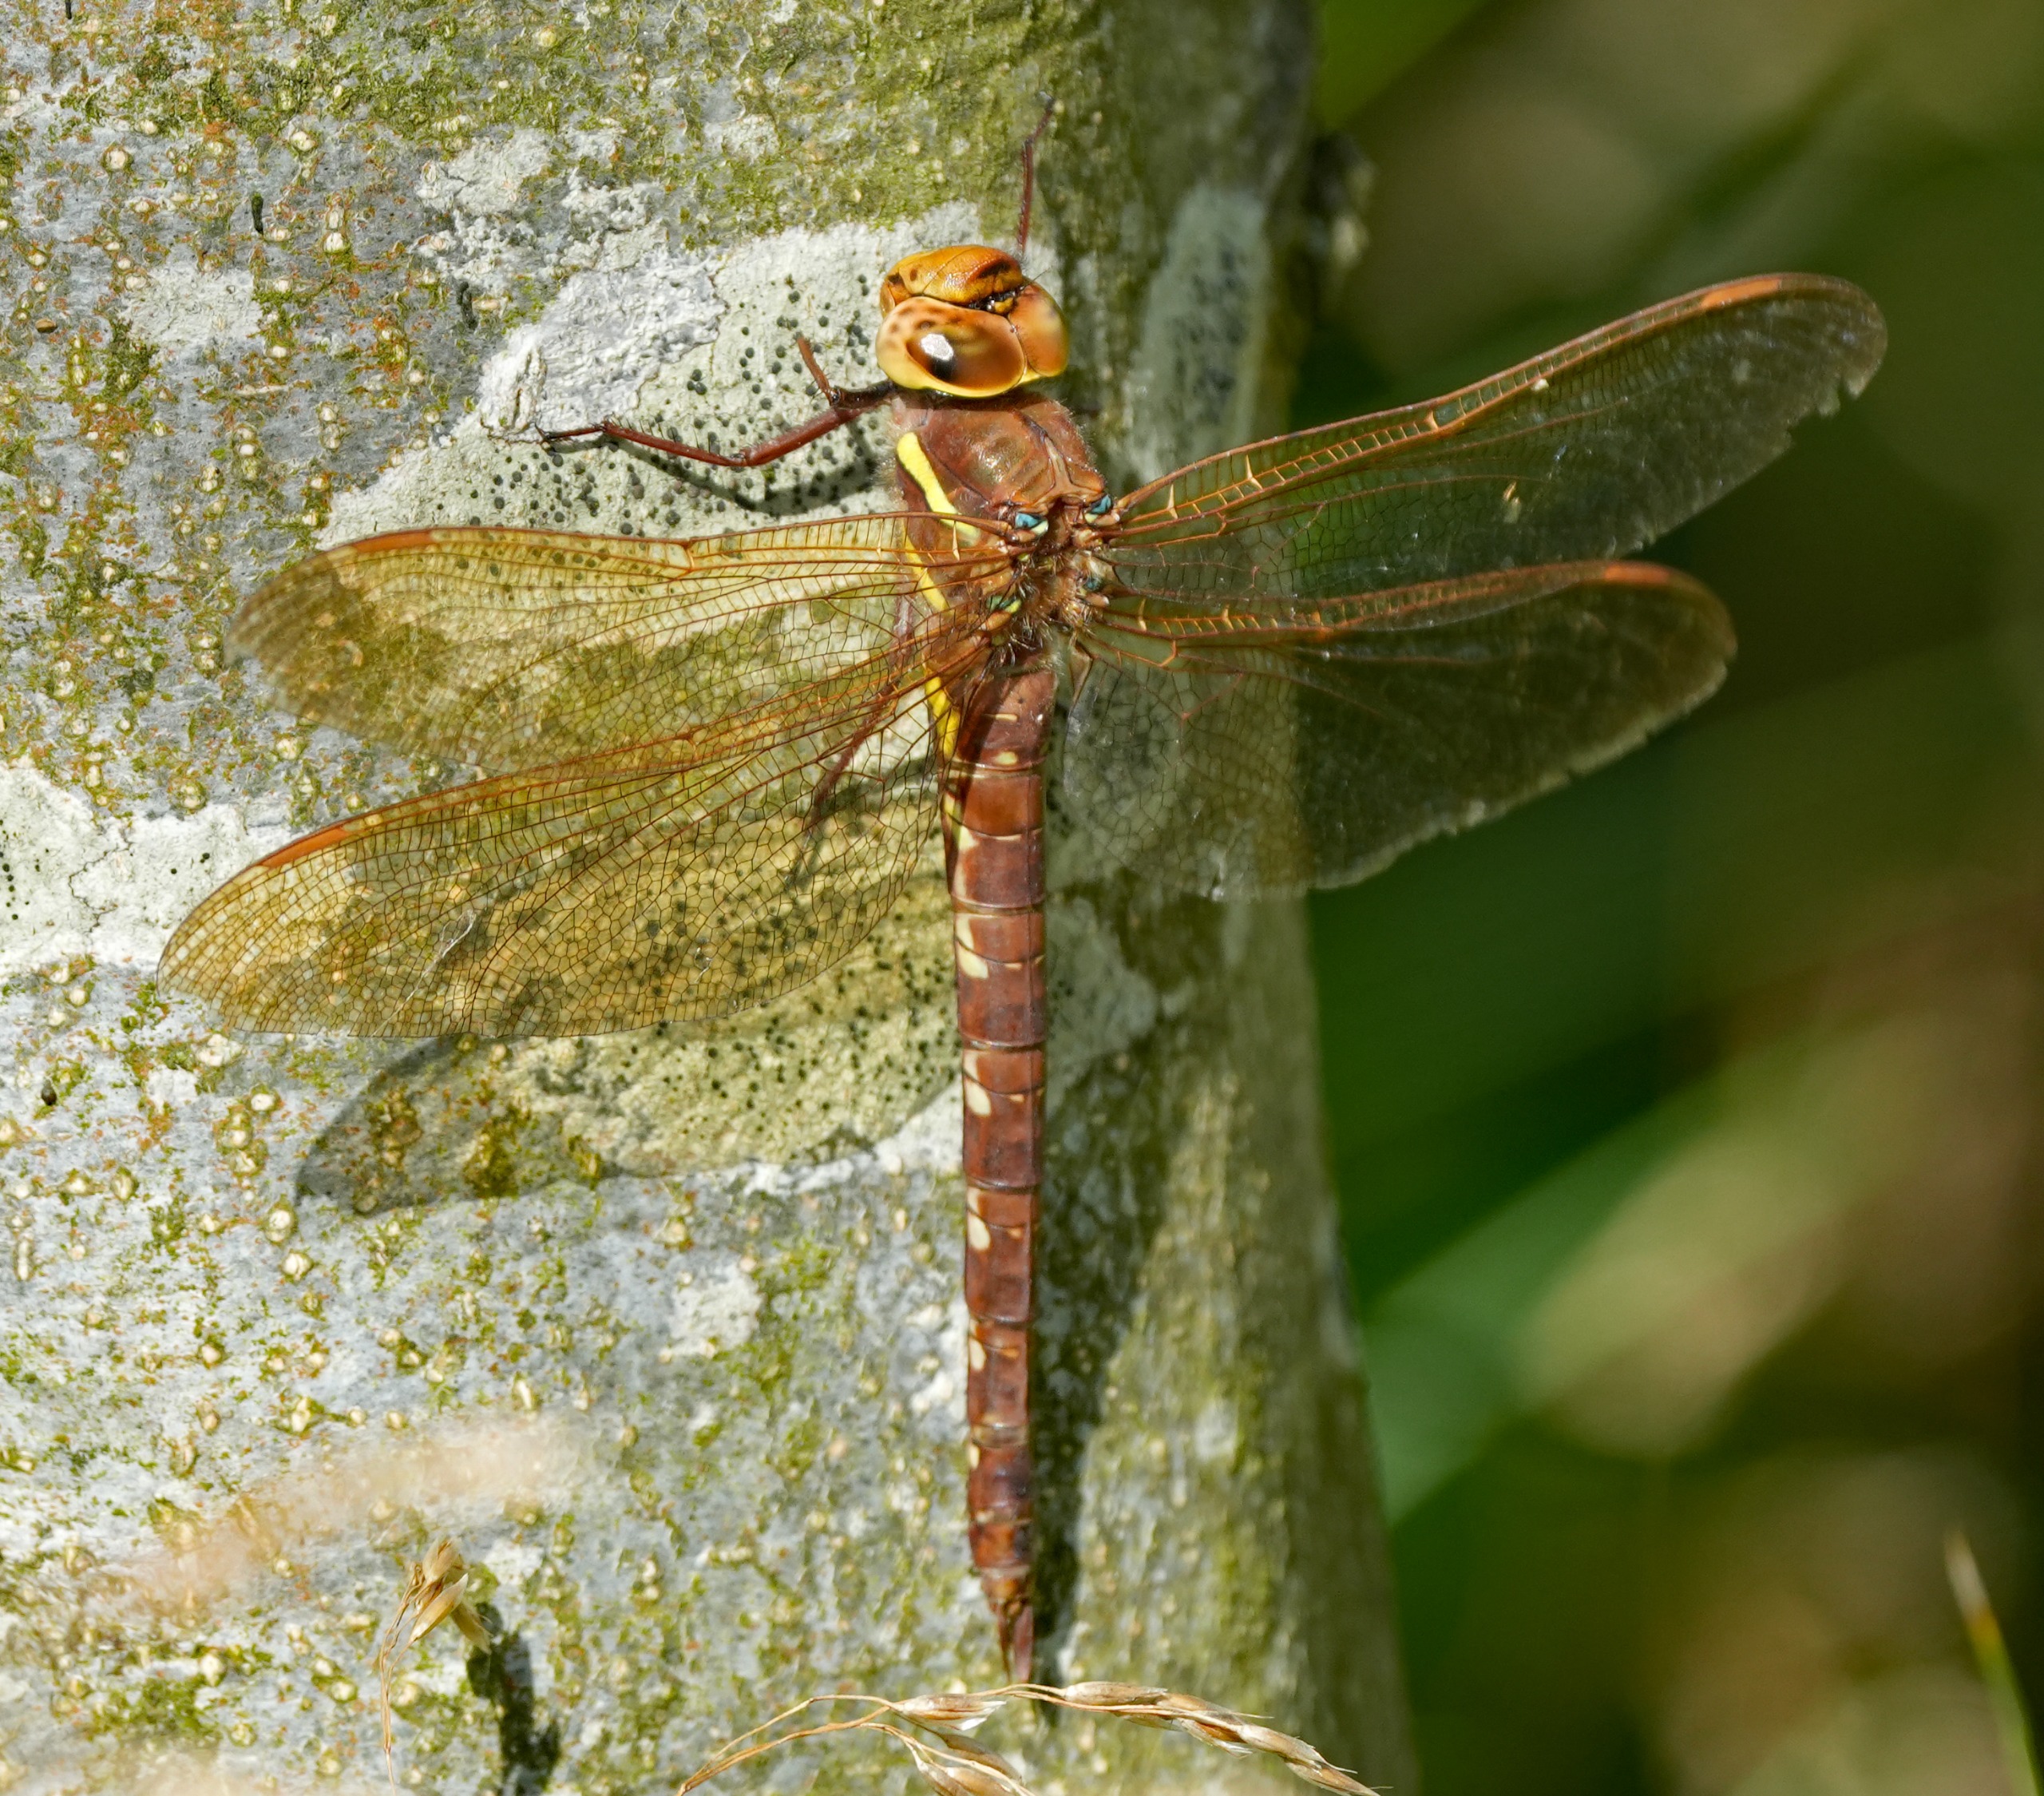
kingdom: Animalia
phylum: Arthropoda
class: Insecta
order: Odonata
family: Aeshnidae
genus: Aeshna
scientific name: Aeshna grandis
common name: Brun mosaikguldsmed
